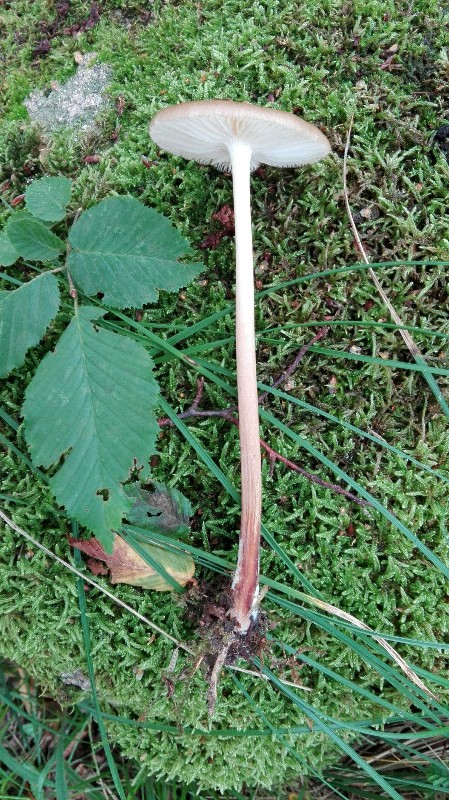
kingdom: Fungi
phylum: Basidiomycota
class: Agaricomycetes
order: Agaricales
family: Physalacriaceae
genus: Hymenopellis
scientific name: Hymenopellis radicata
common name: almindelig pælerodshat
